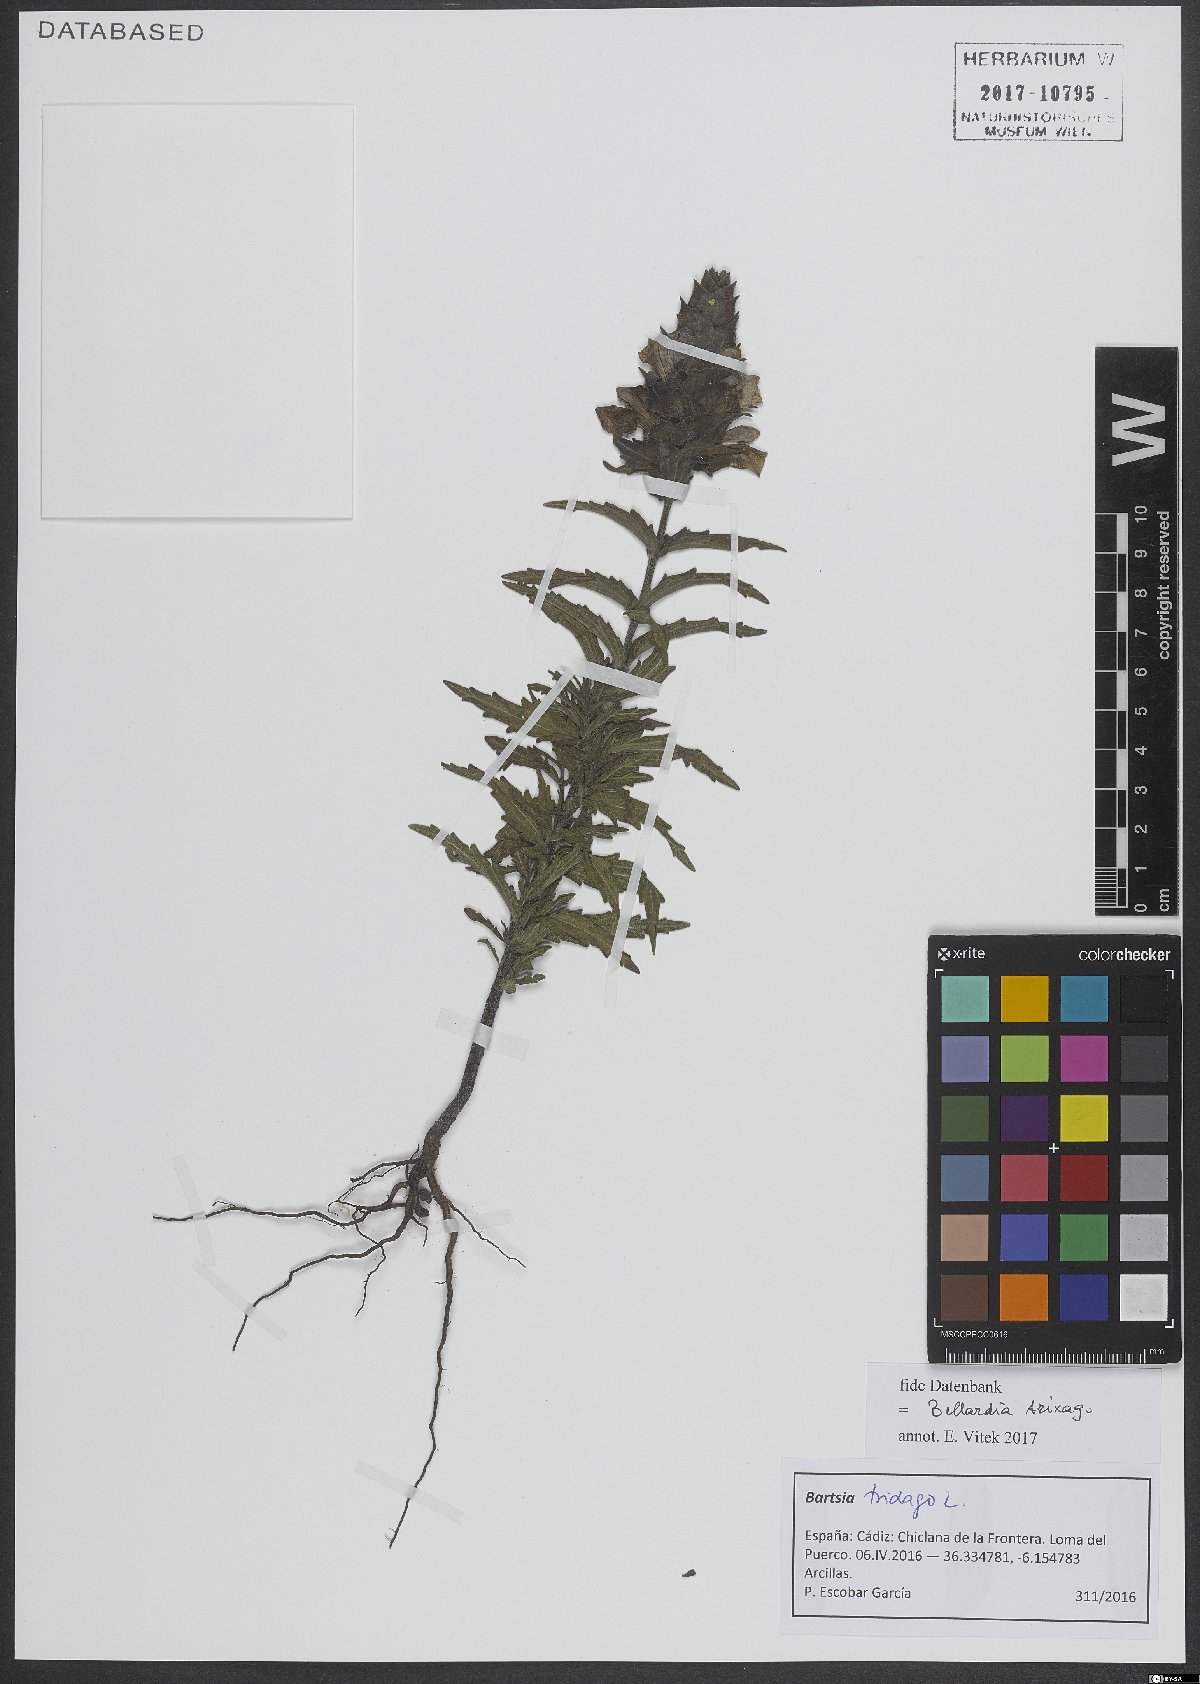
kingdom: Plantae
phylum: Tracheophyta
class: Magnoliopsida
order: Lamiales
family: Orobanchaceae
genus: Bellardia
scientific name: Bellardia trixago
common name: Mediterranean lineseed
